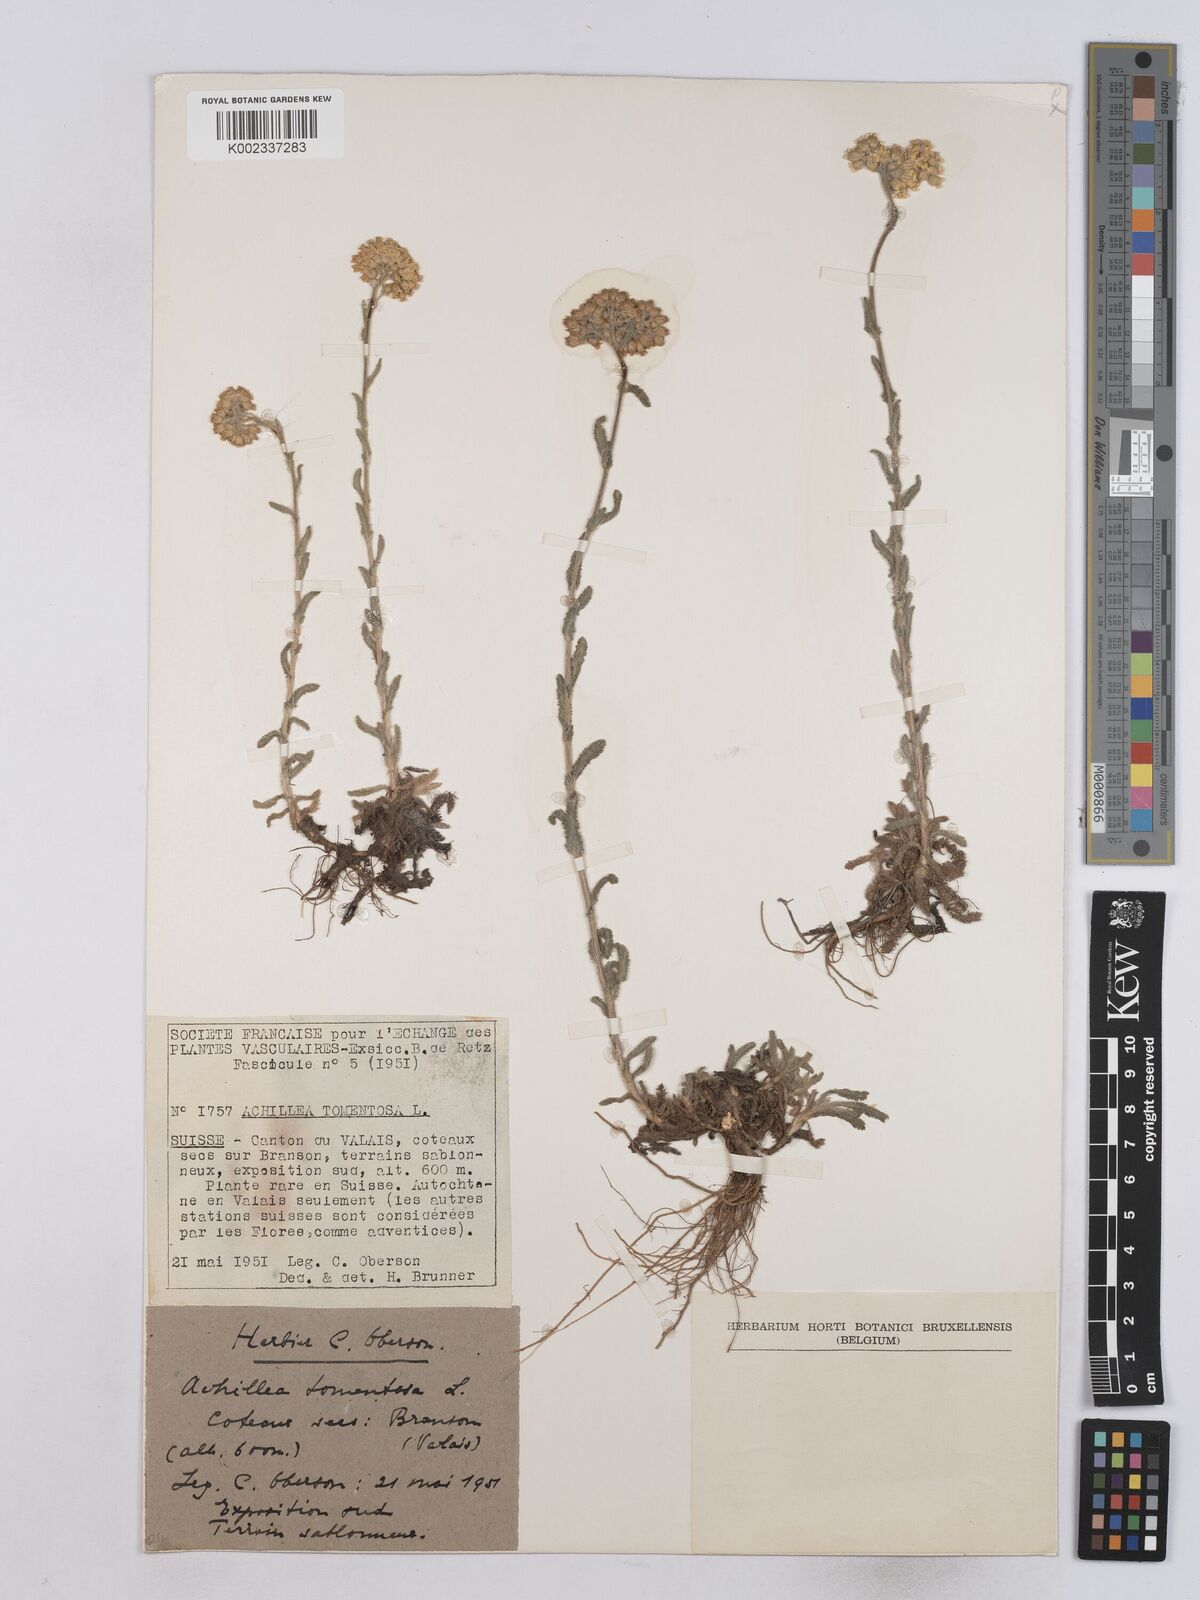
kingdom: Plantae
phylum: Tracheophyta
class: Magnoliopsida
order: Asterales
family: Asteraceae
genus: Achillea
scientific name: Achillea tomentosa
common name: Yellow milfoil
